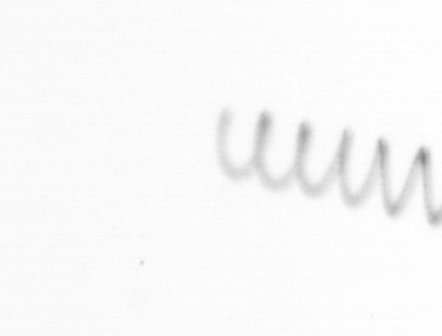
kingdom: Chromista
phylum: Ochrophyta
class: Bacillariophyceae
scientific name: Bacillariophyceae
